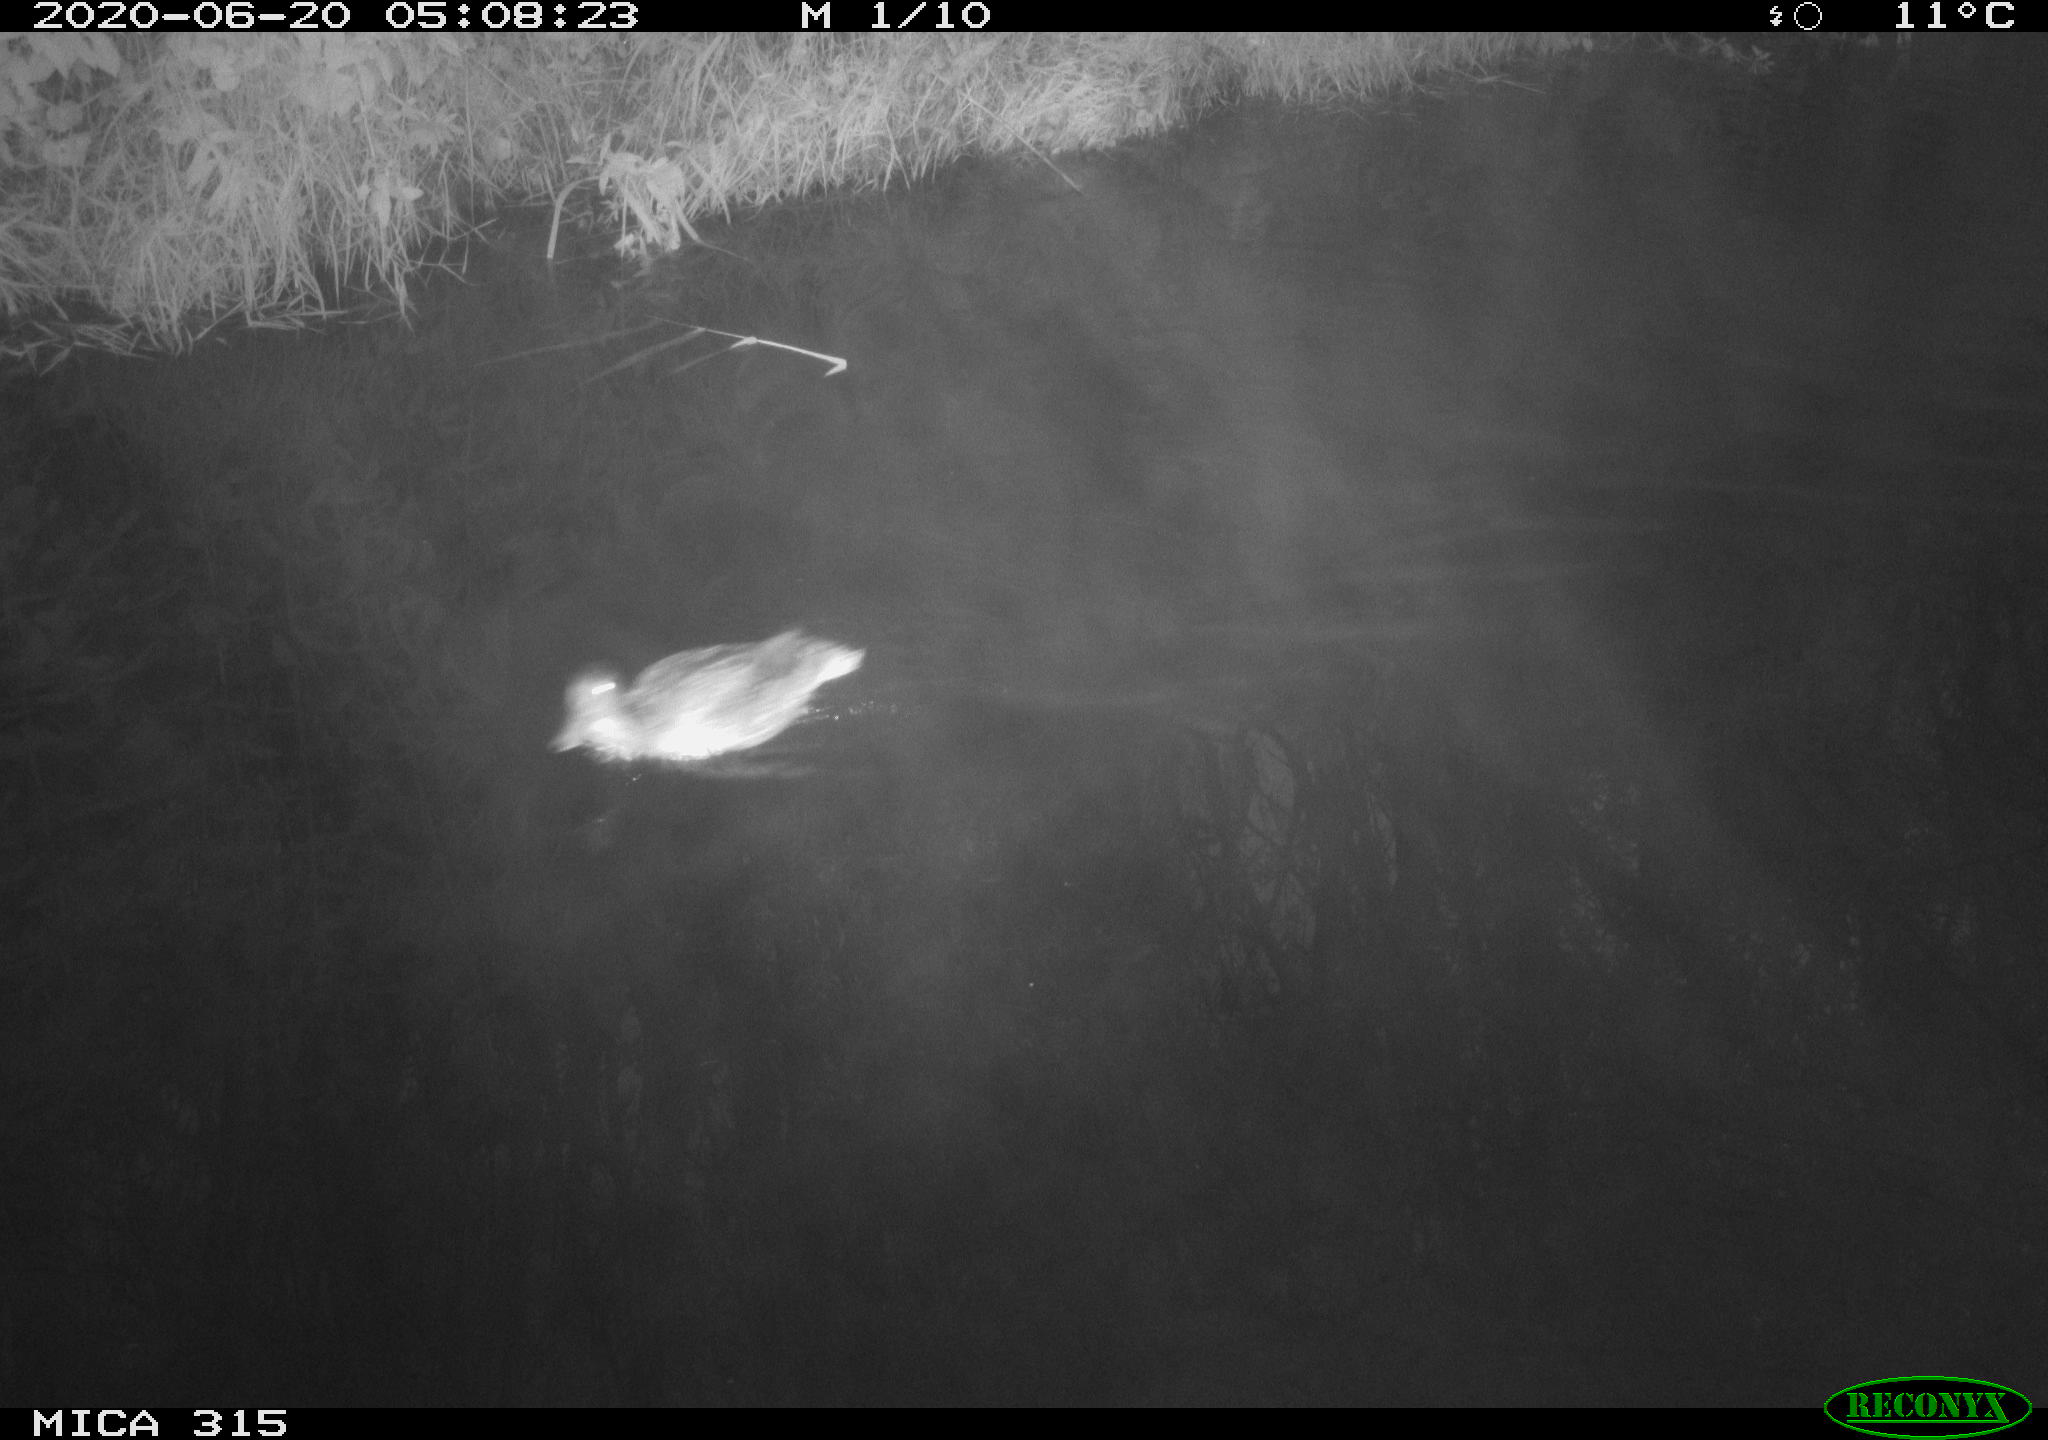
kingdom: Animalia
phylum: Chordata
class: Aves
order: Anseriformes
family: Anatidae
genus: Anas
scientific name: Anas platyrhynchos
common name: Mallard
